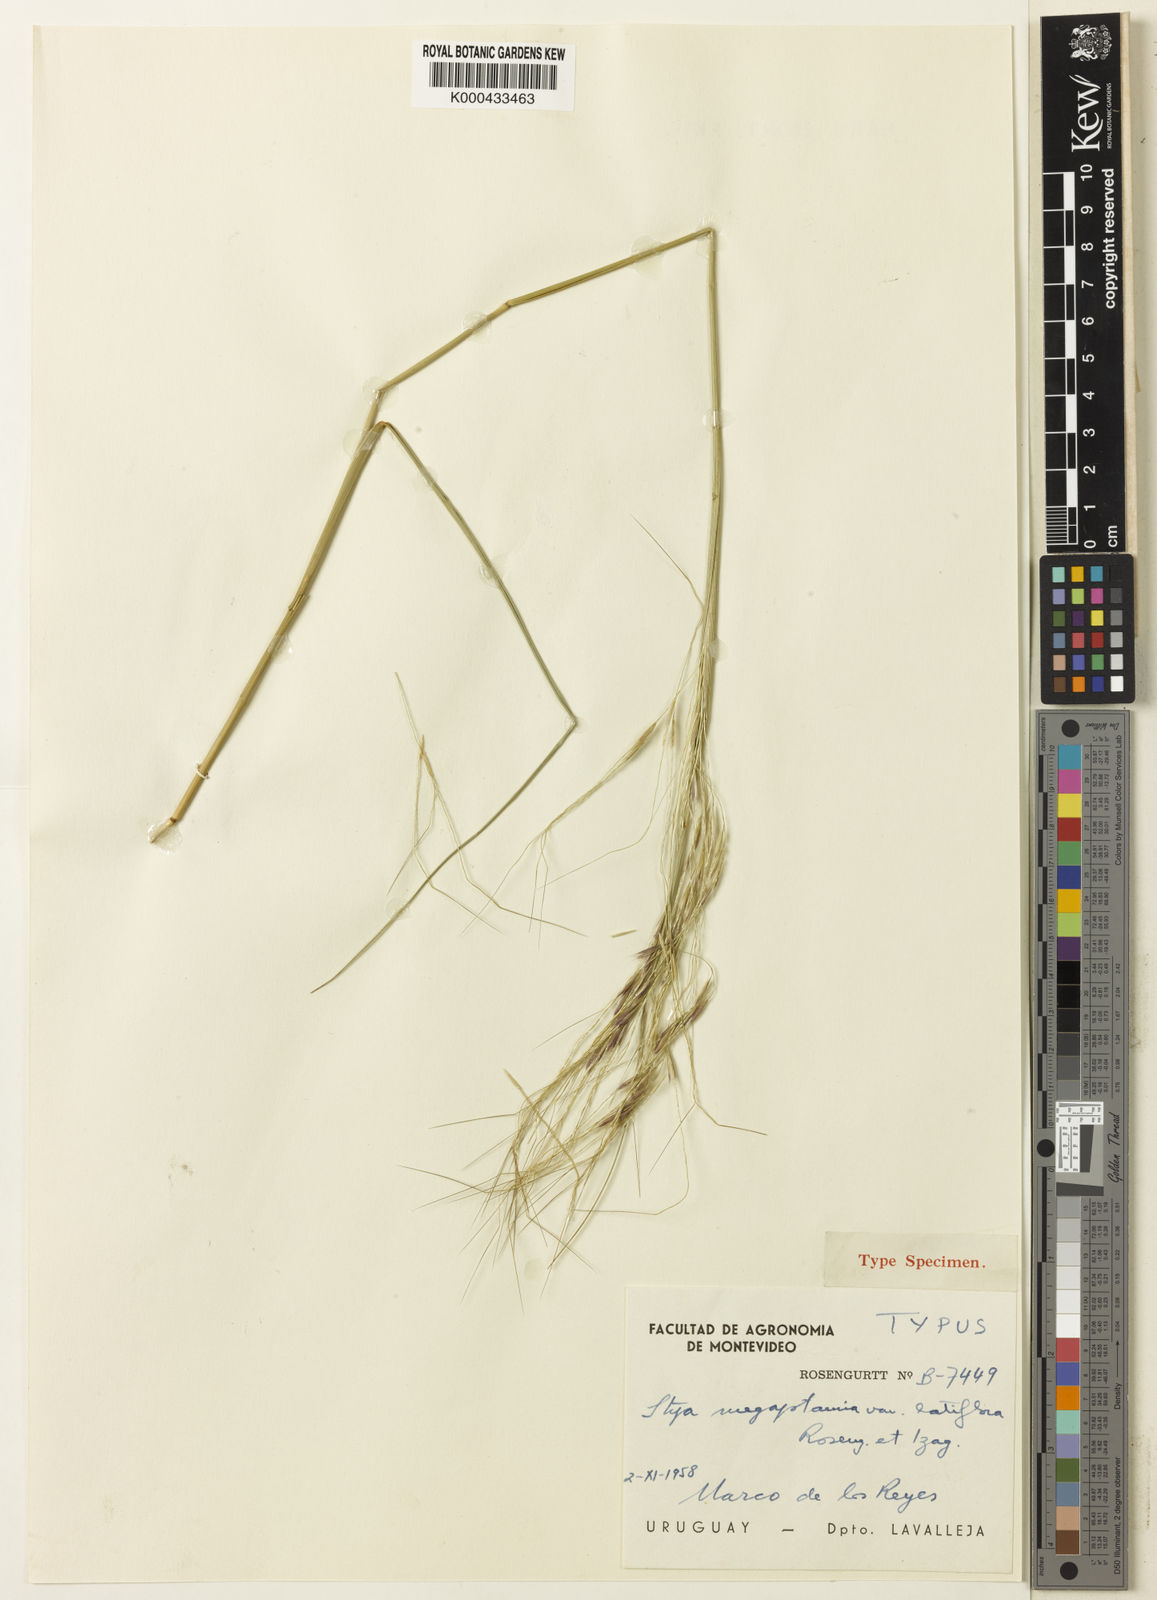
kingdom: Plantae
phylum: Tracheophyta
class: Liliopsida
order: Poales
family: Poaceae
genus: Nassella
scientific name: Nassella poeppigiana
